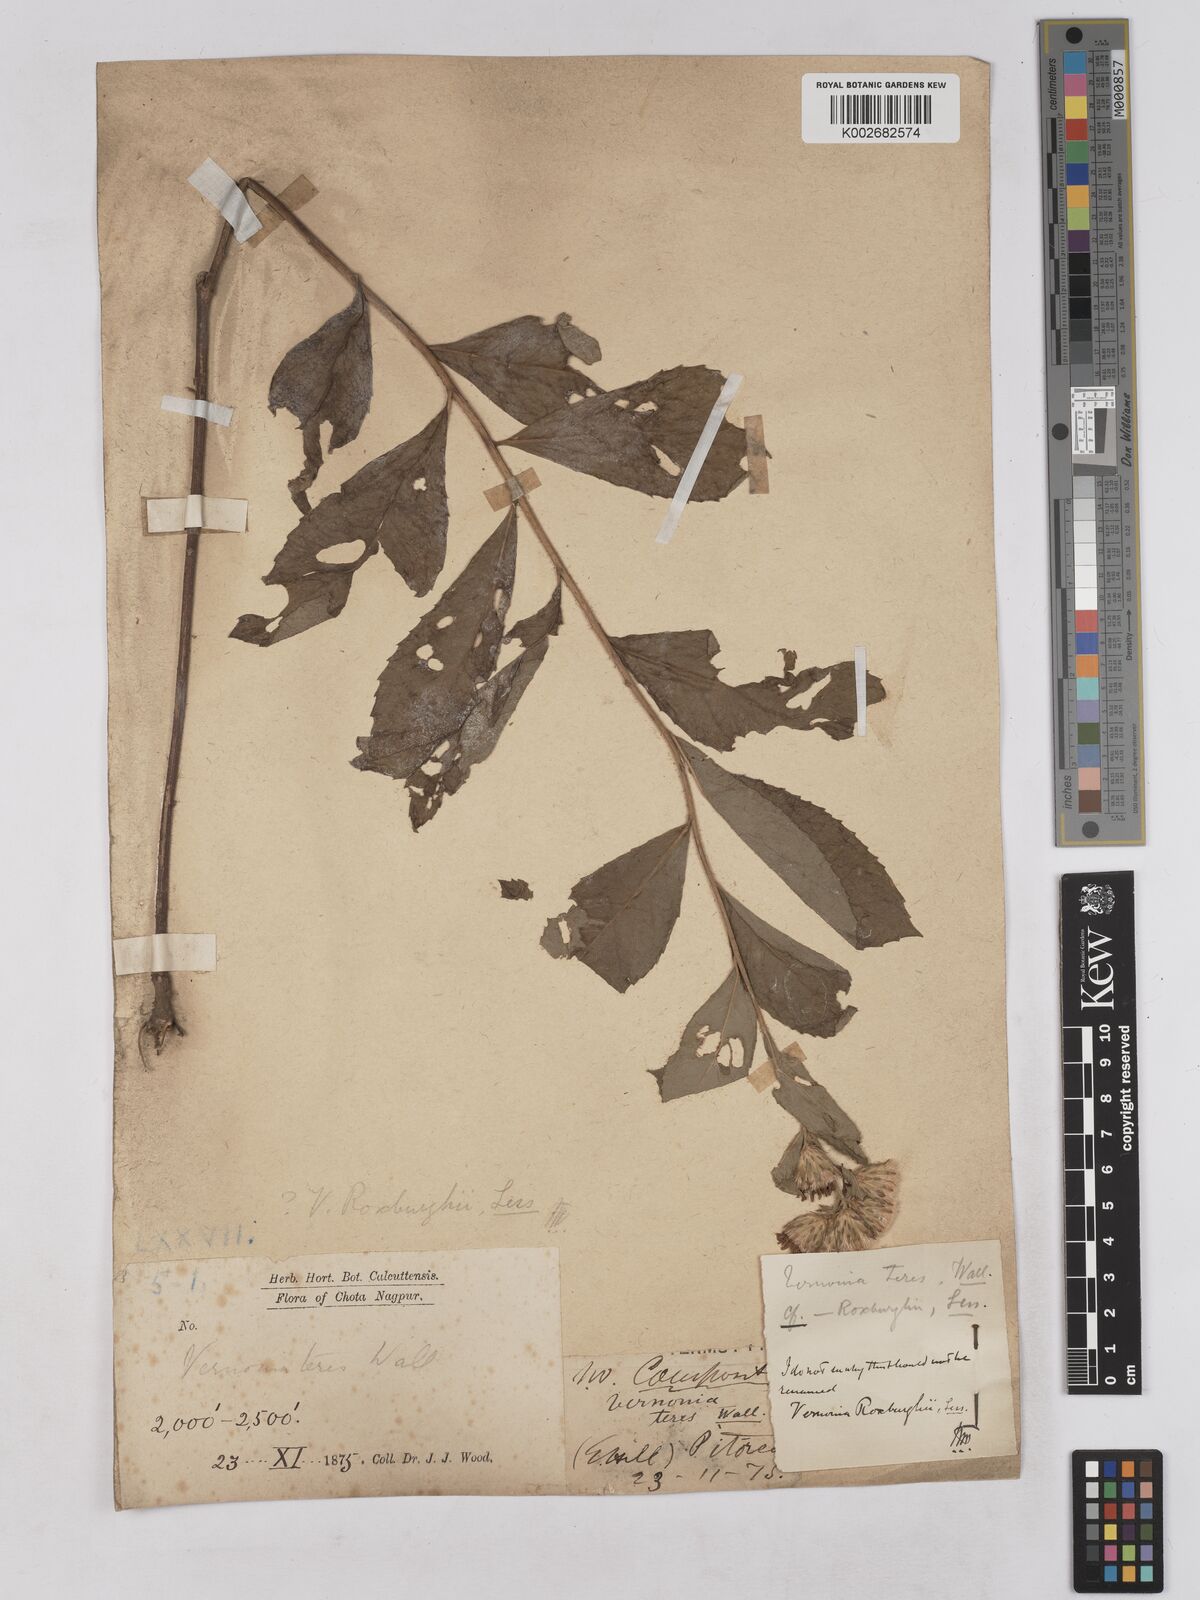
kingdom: Plantae
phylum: Tracheophyta
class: Magnoliopsida
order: Asterales
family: Asteraceae
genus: Acilepis
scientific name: Acilepis aspera
